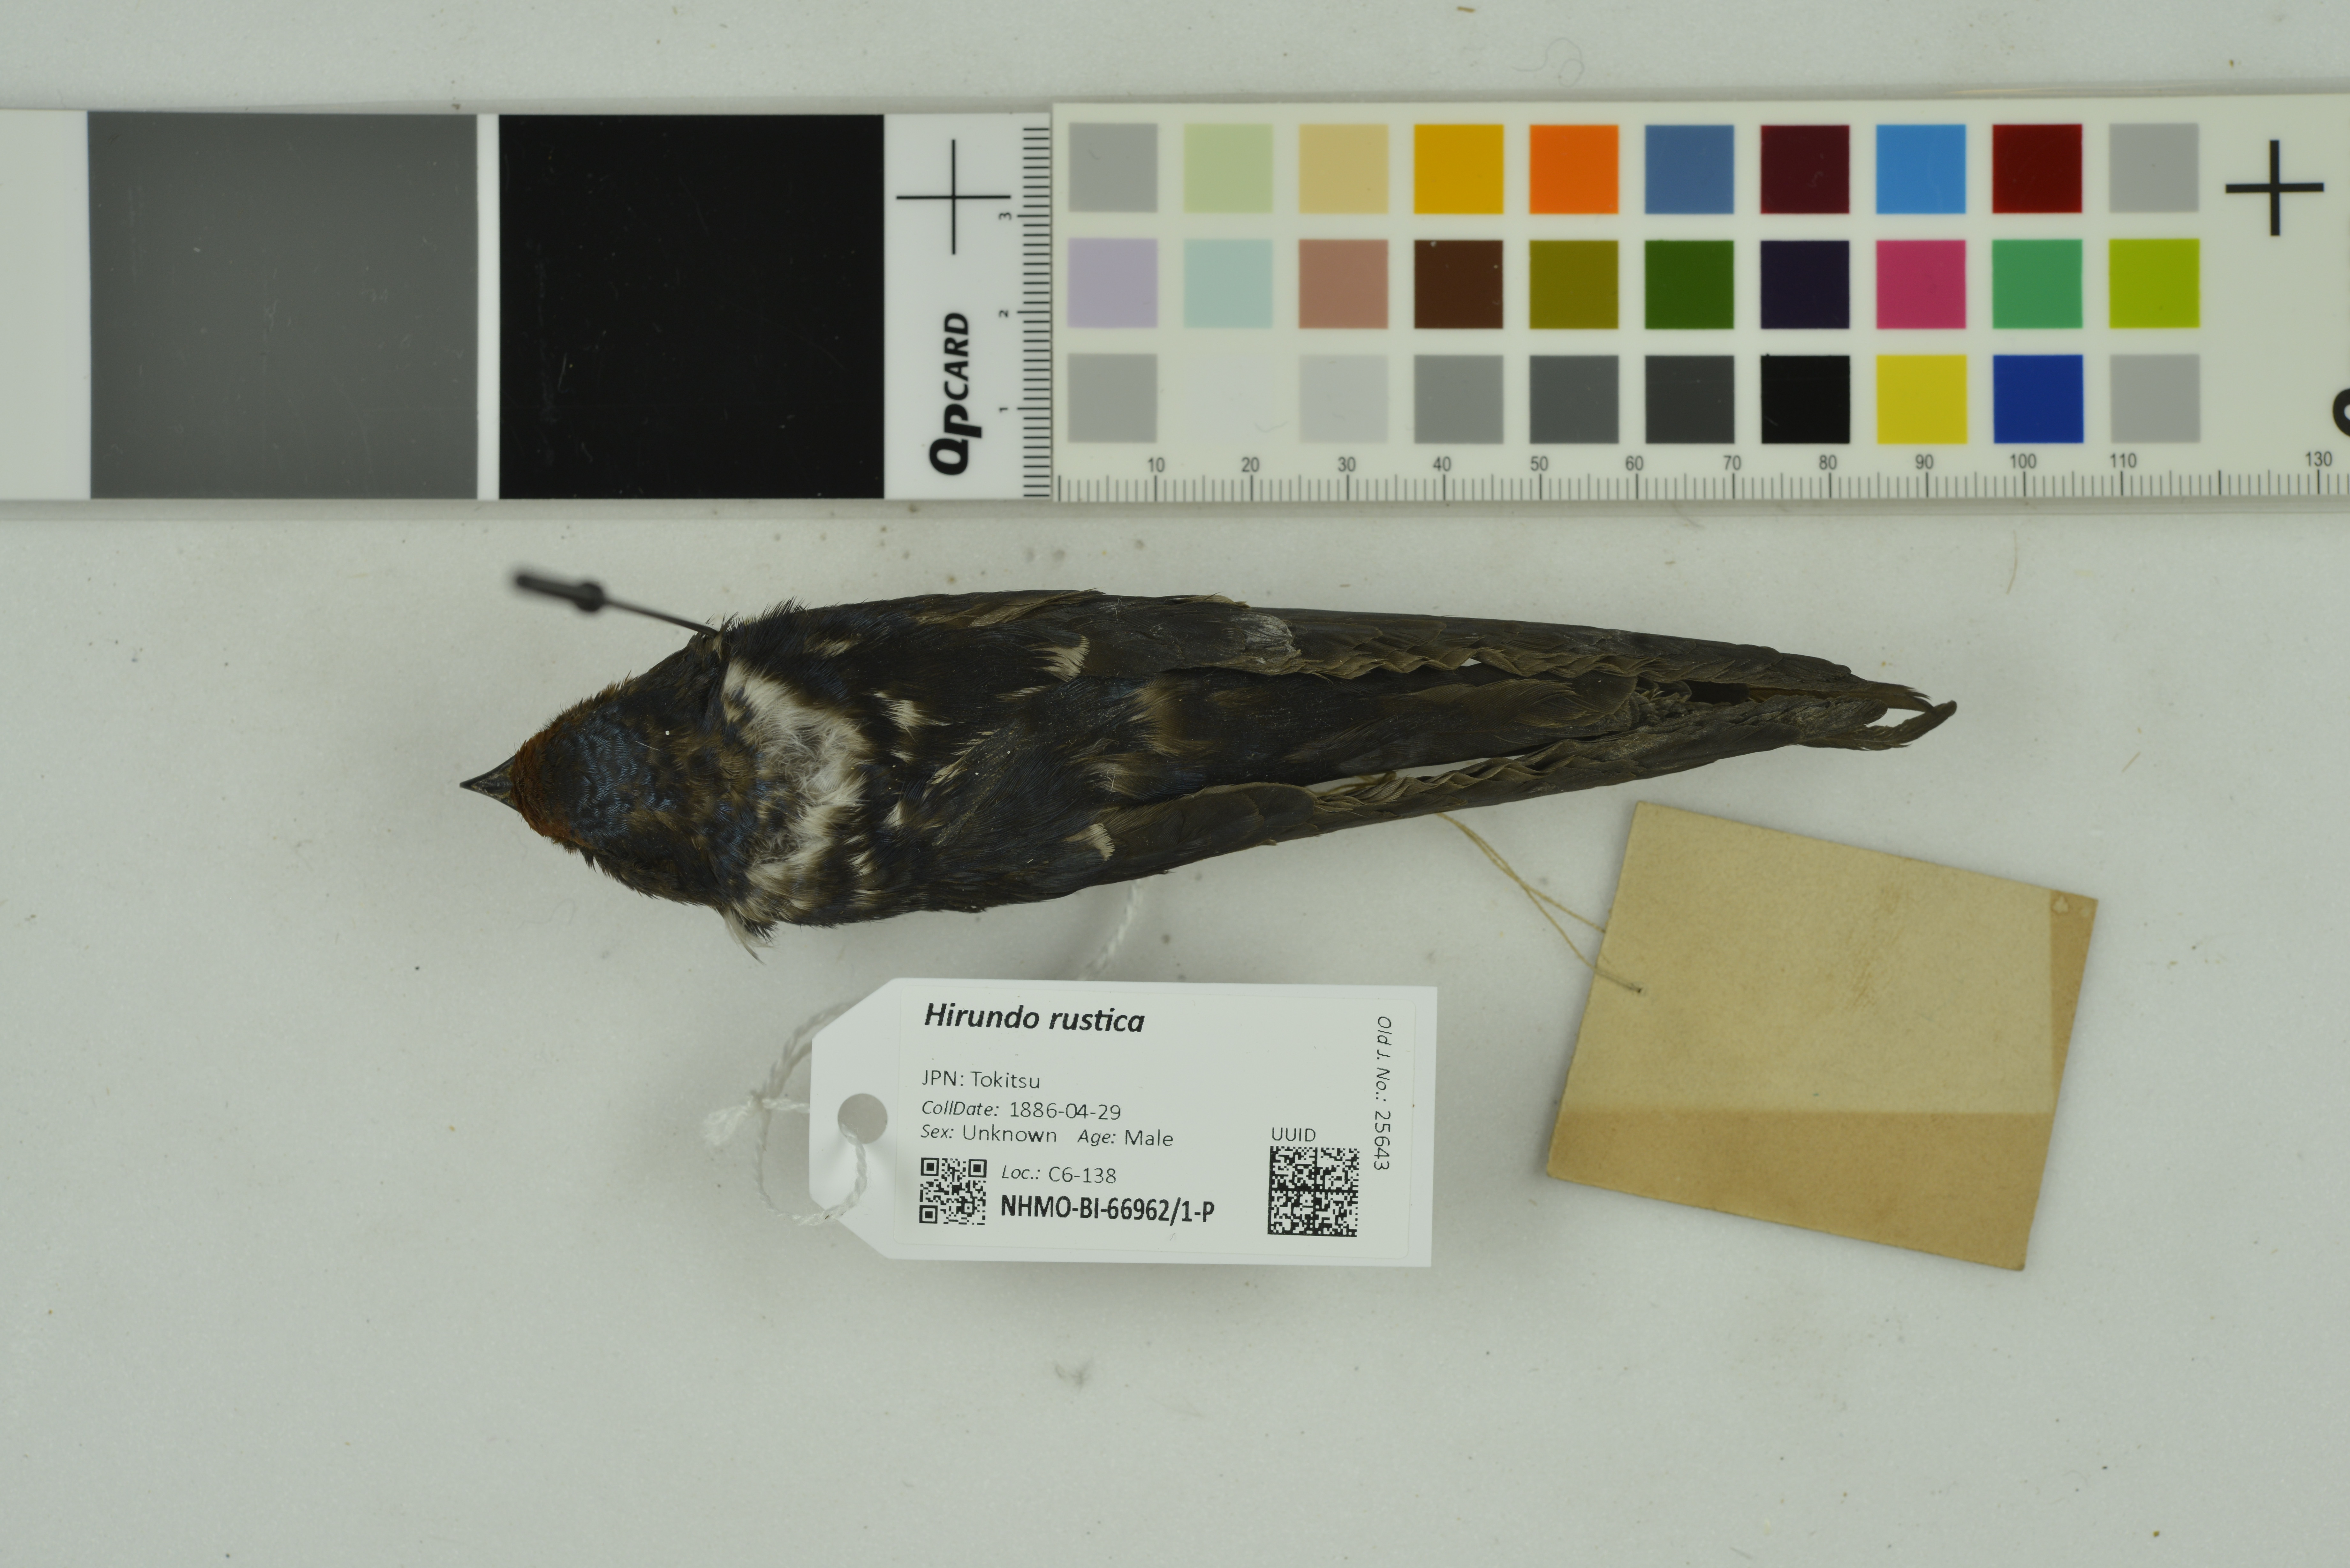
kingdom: Animalia
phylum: Chordata
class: Aves
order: Passeriformes
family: Hirundinidae
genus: Hirundo
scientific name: Hirundo rustica
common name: Barn swallow
